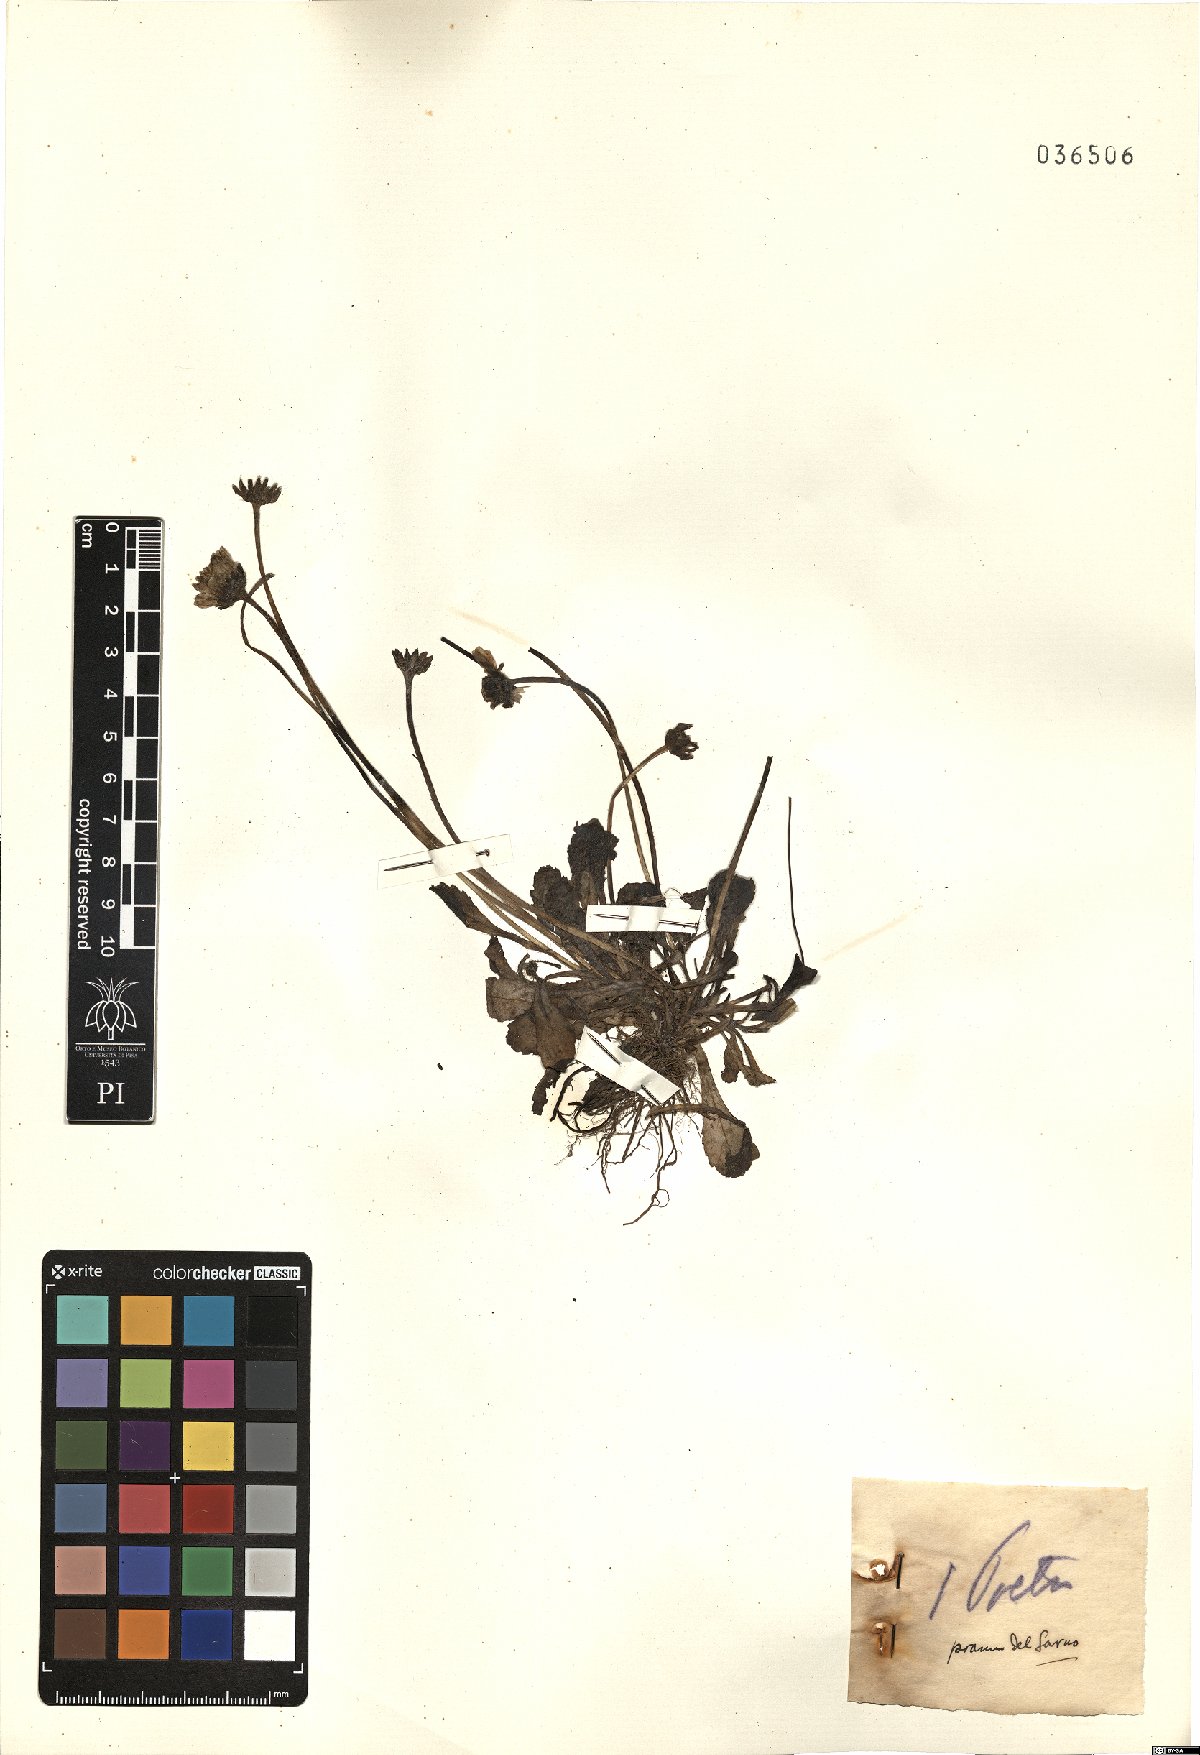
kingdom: Plantae
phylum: Tracheophyta
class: Magnoliopsida
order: Asterales
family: Asteraceae
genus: Bellis
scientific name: Bellis
